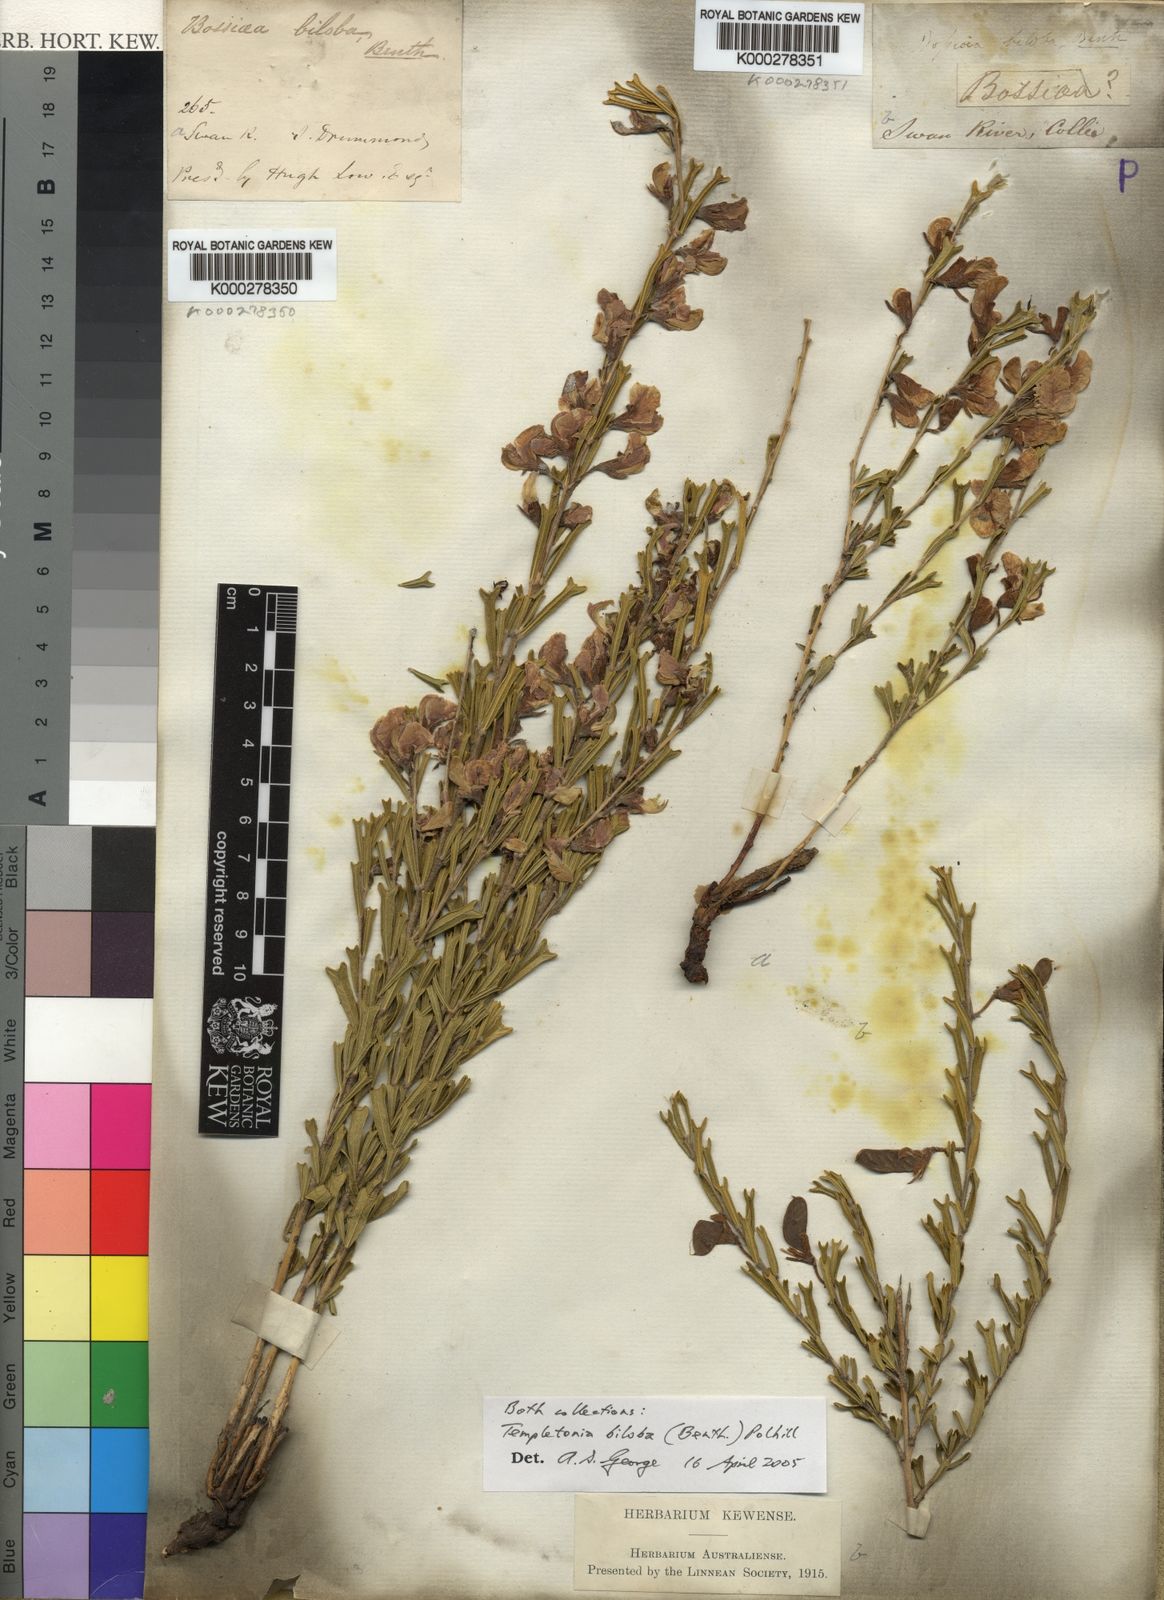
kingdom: Plantae
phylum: Tracheophyta
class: Magnoliopsida
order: Fabales
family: Fabaceae
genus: Cristonia
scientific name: Cristonia biloba
